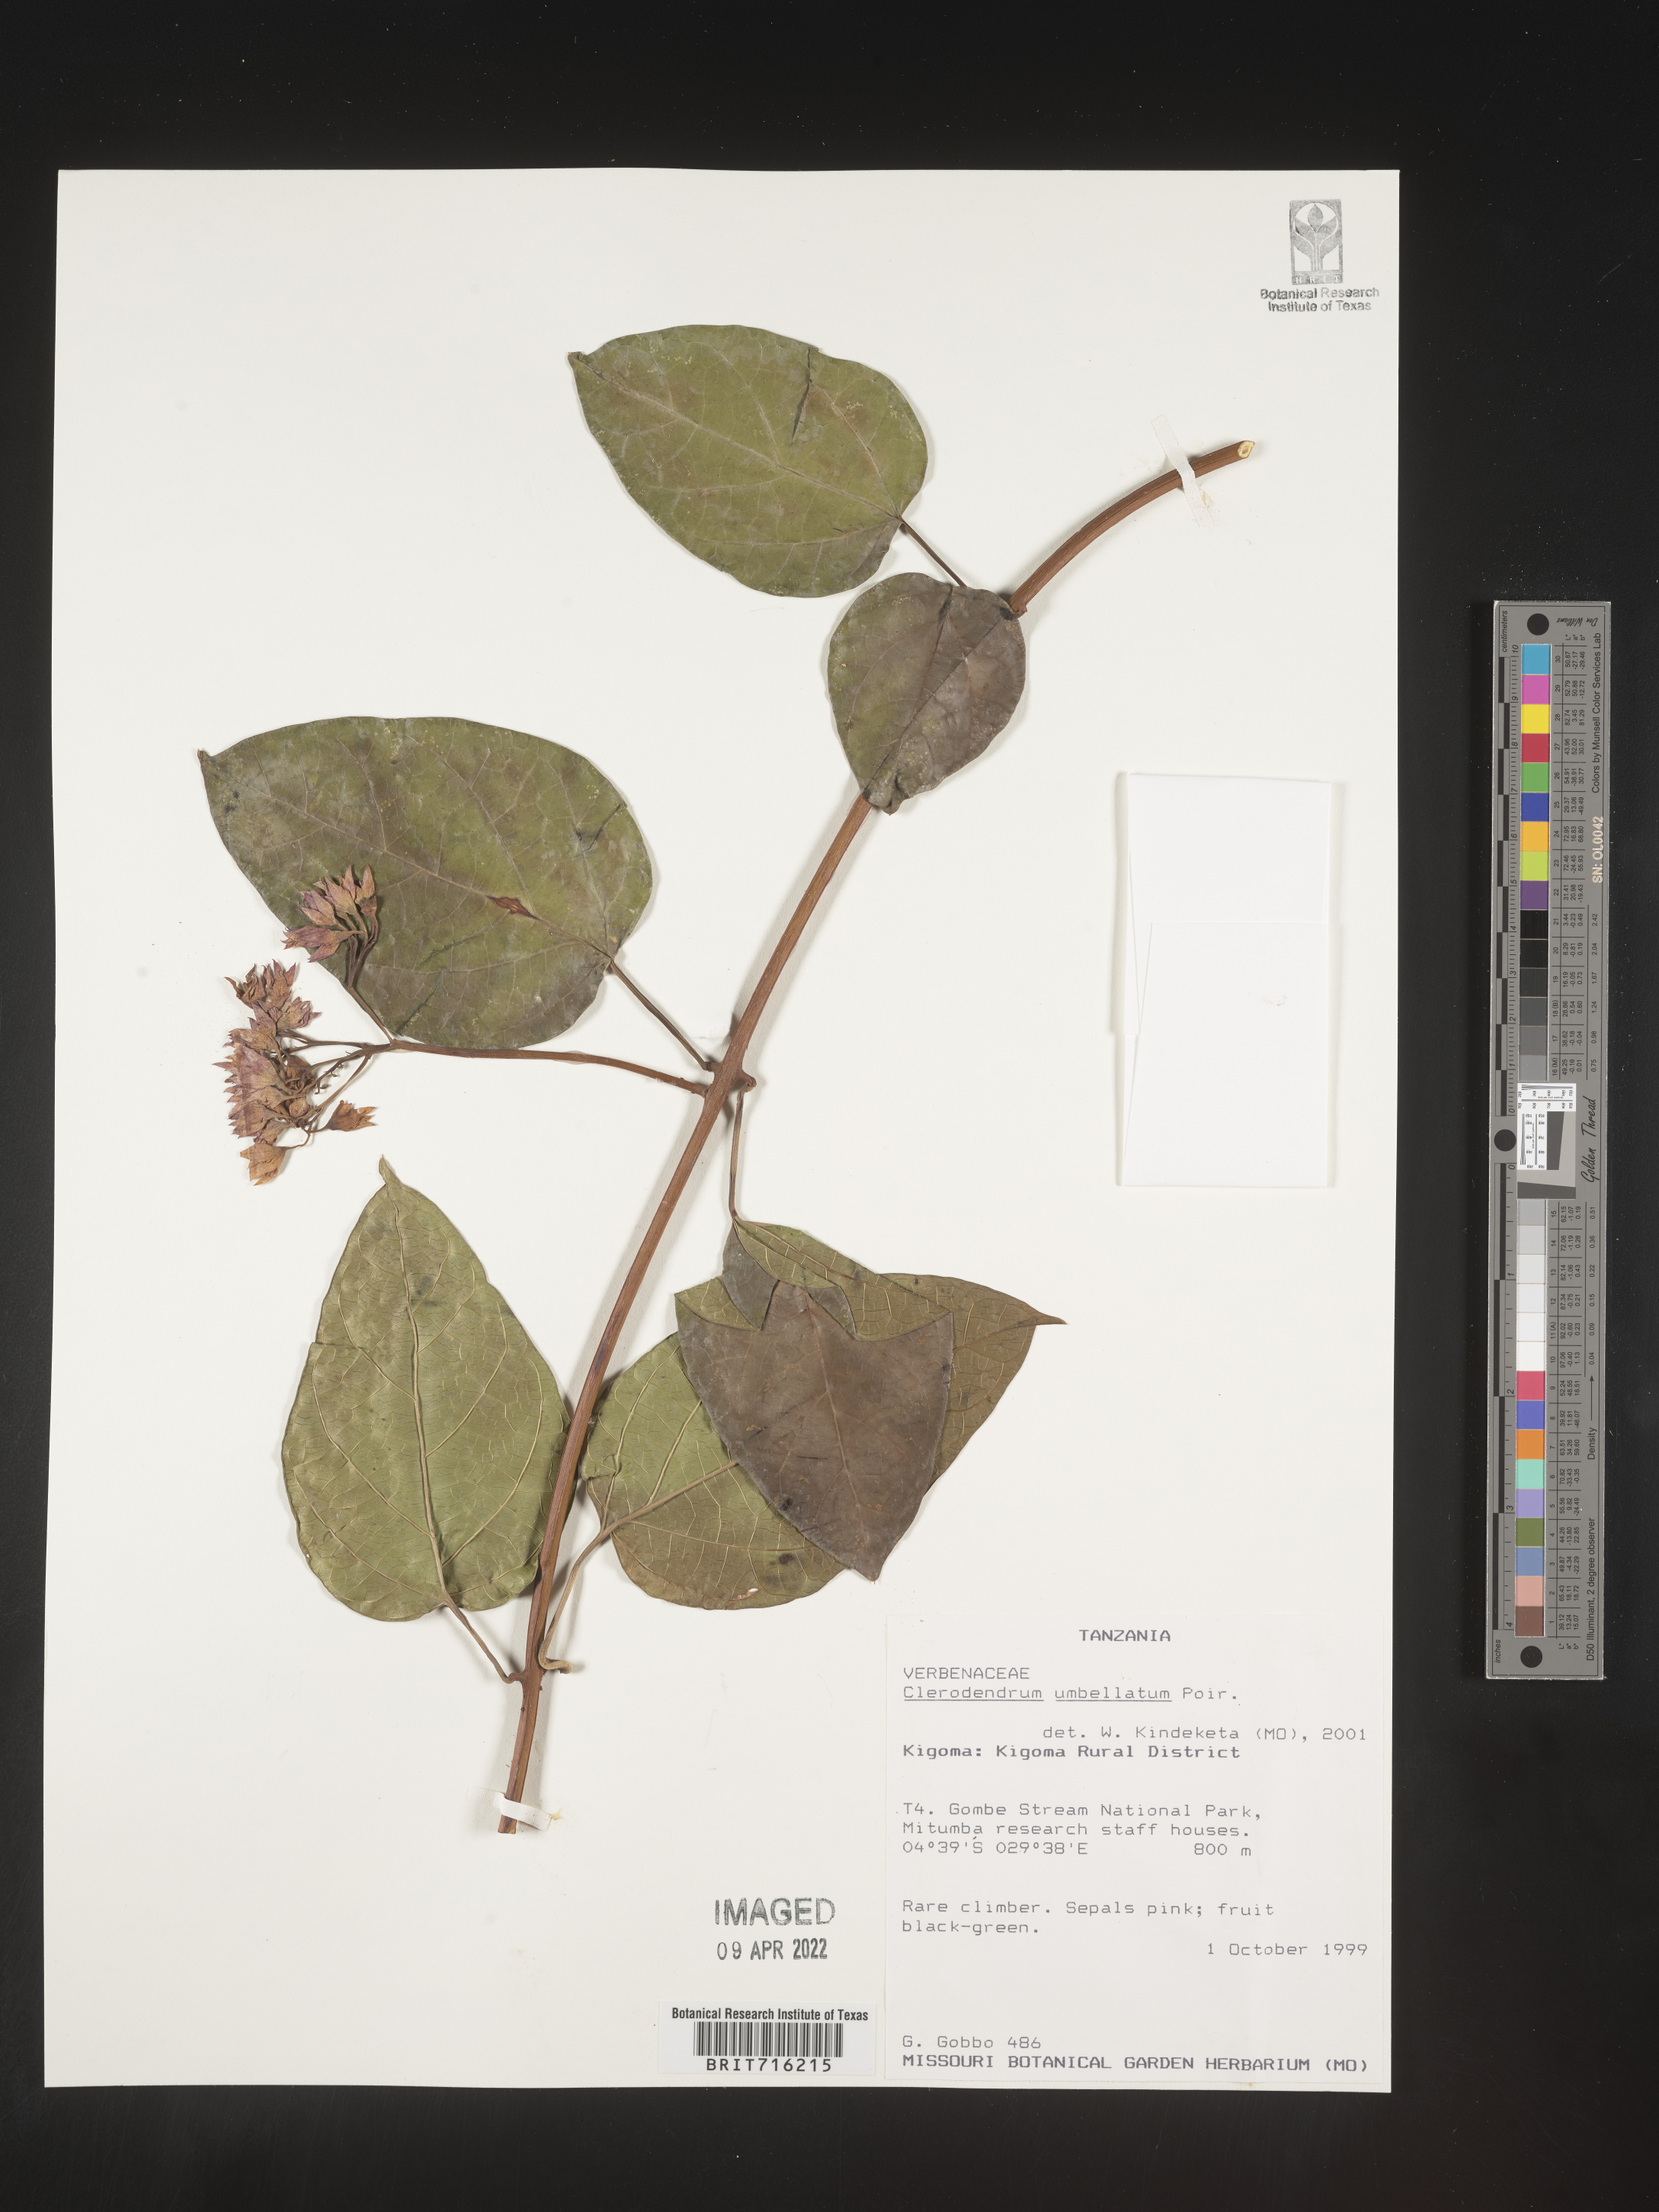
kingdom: Plantae
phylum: Tracheophyta
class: Magnoliopsida
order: Lamiales
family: Lamiaceae
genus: Clerodendrum
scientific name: Clerodendrum
